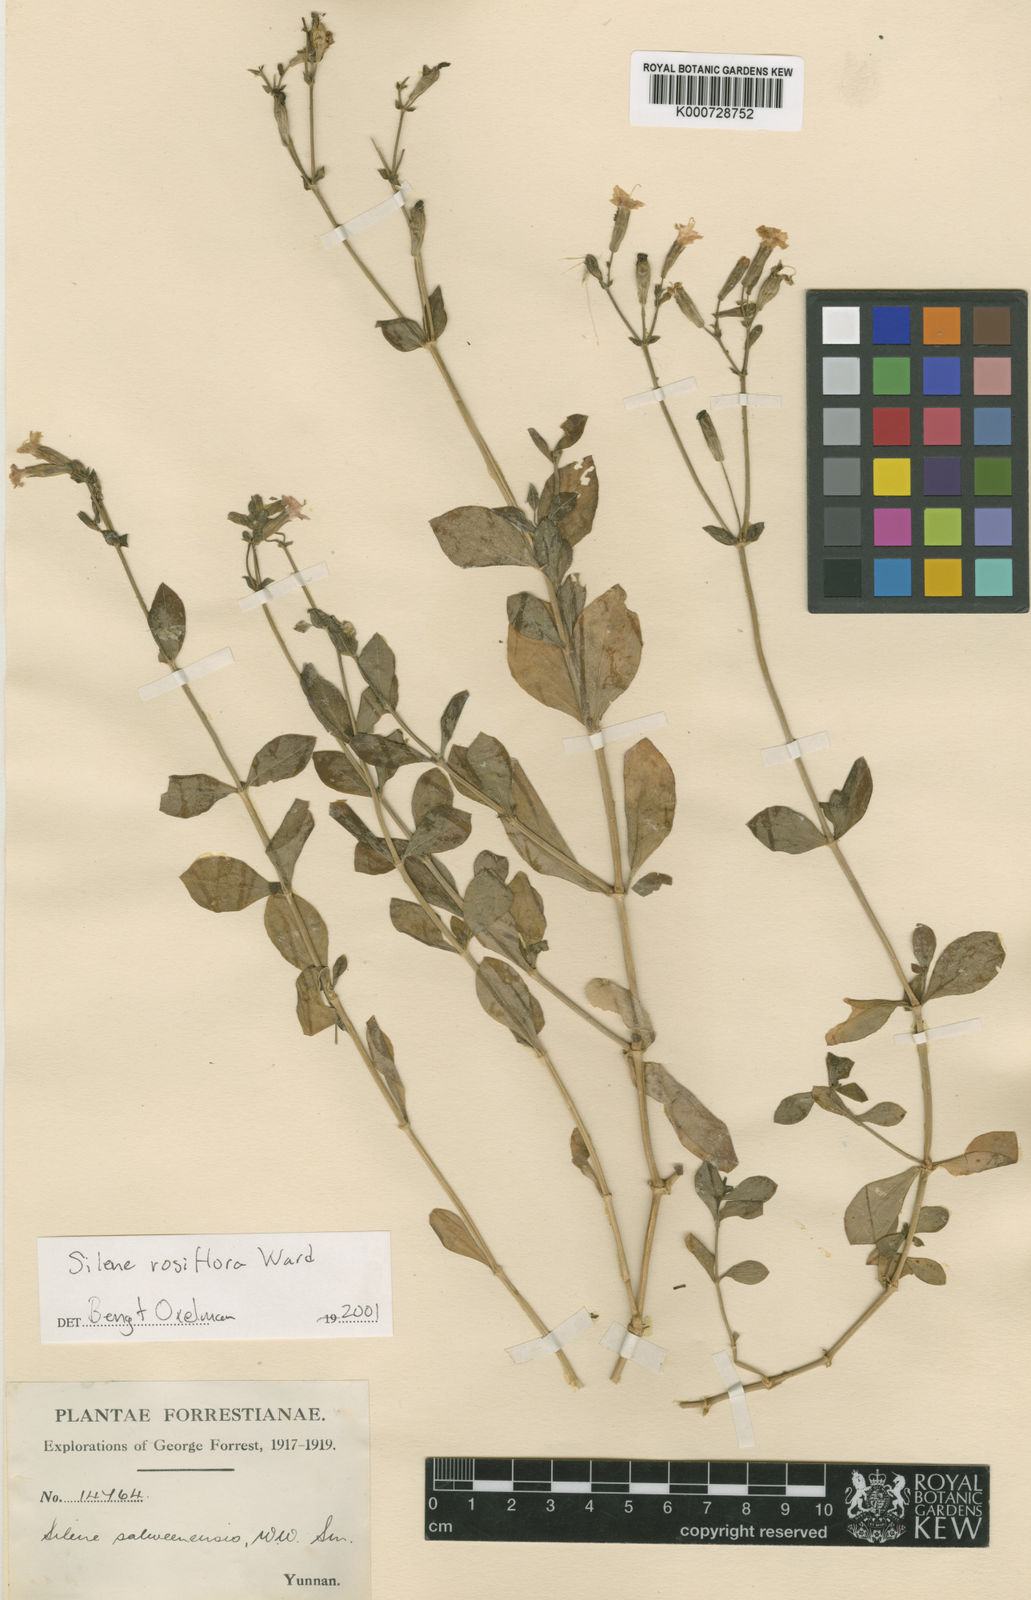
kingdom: Plantae
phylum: Tracheophyta
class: Magnoliopsida
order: Caryophyllales
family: Caryophyllaceae
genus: Silene
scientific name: Silene
